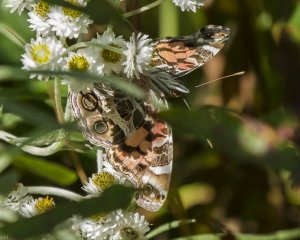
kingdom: Animalia
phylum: Arthropoda
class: Insecta
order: Lepidoptera
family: Nymphalidae
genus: Vanessa
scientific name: Vanessa virginiensis
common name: American Lady
